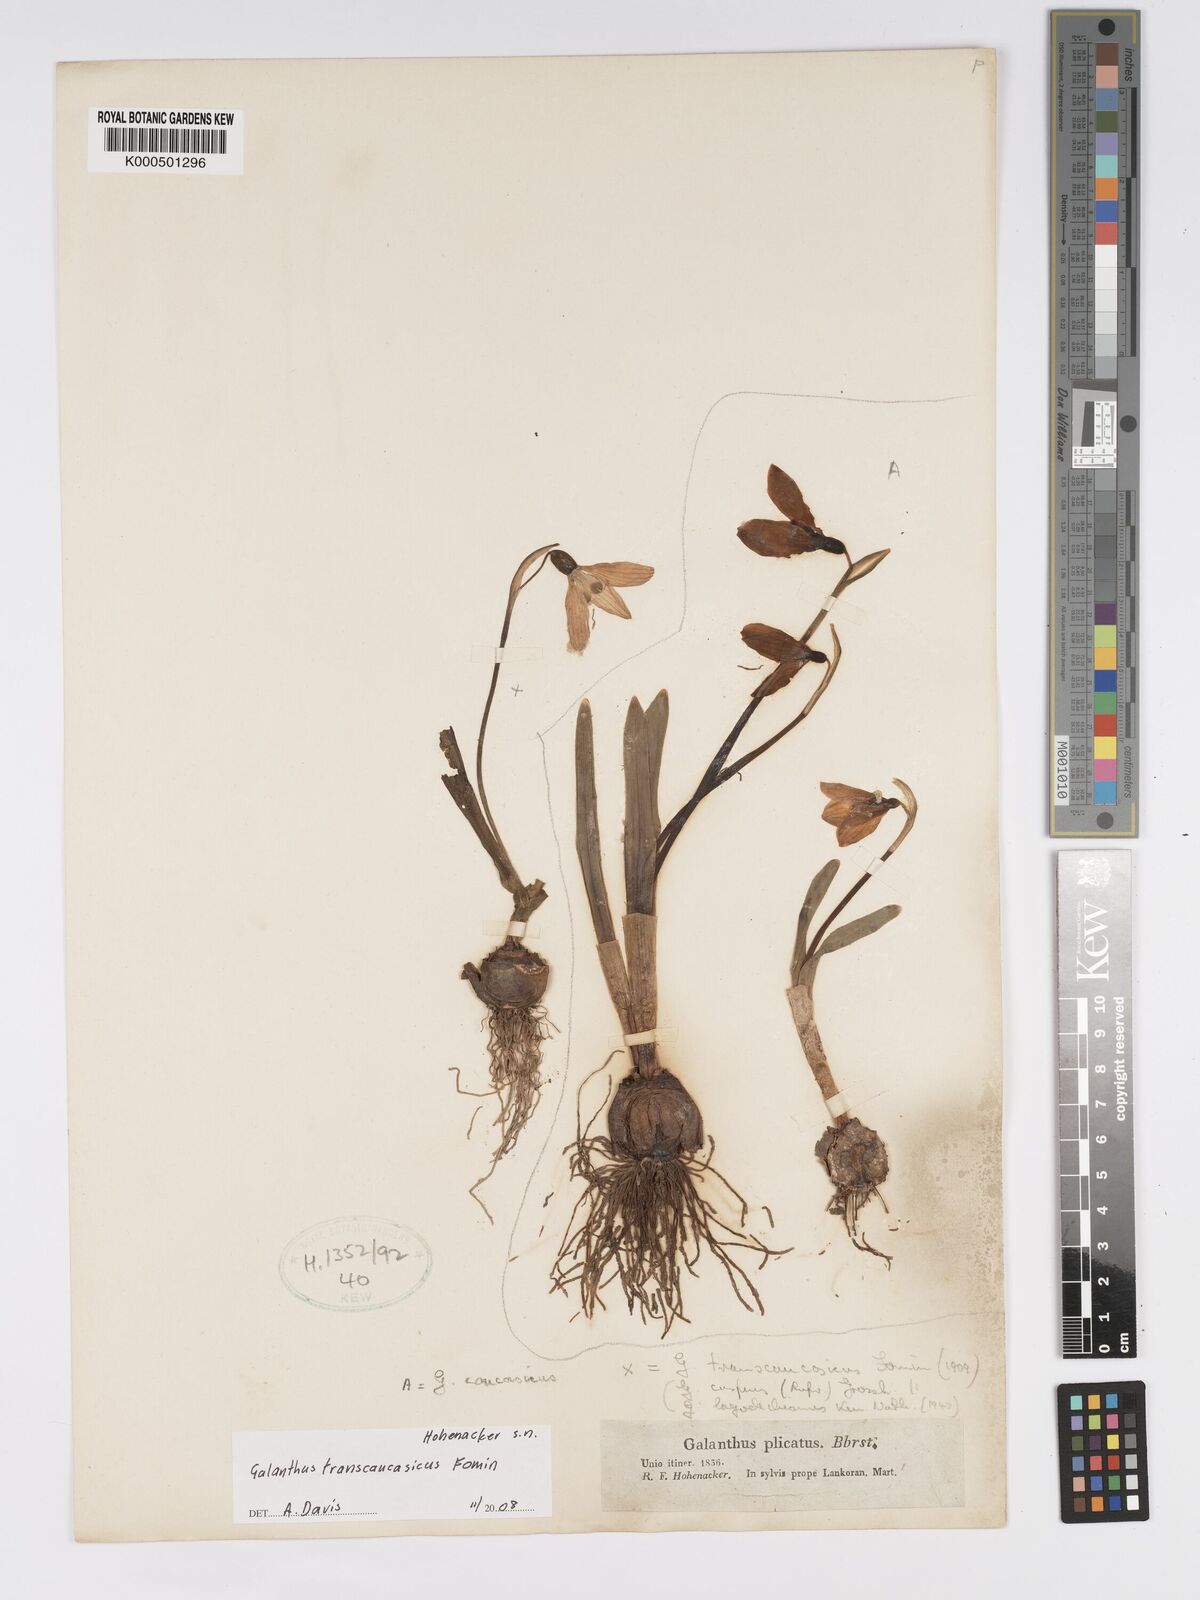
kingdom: Plantae
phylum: Tracheophyta
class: Liliopsida
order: Asparagales
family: Amaryllidaceae
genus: Galanthus
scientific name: Galanthus transcaucasicus
